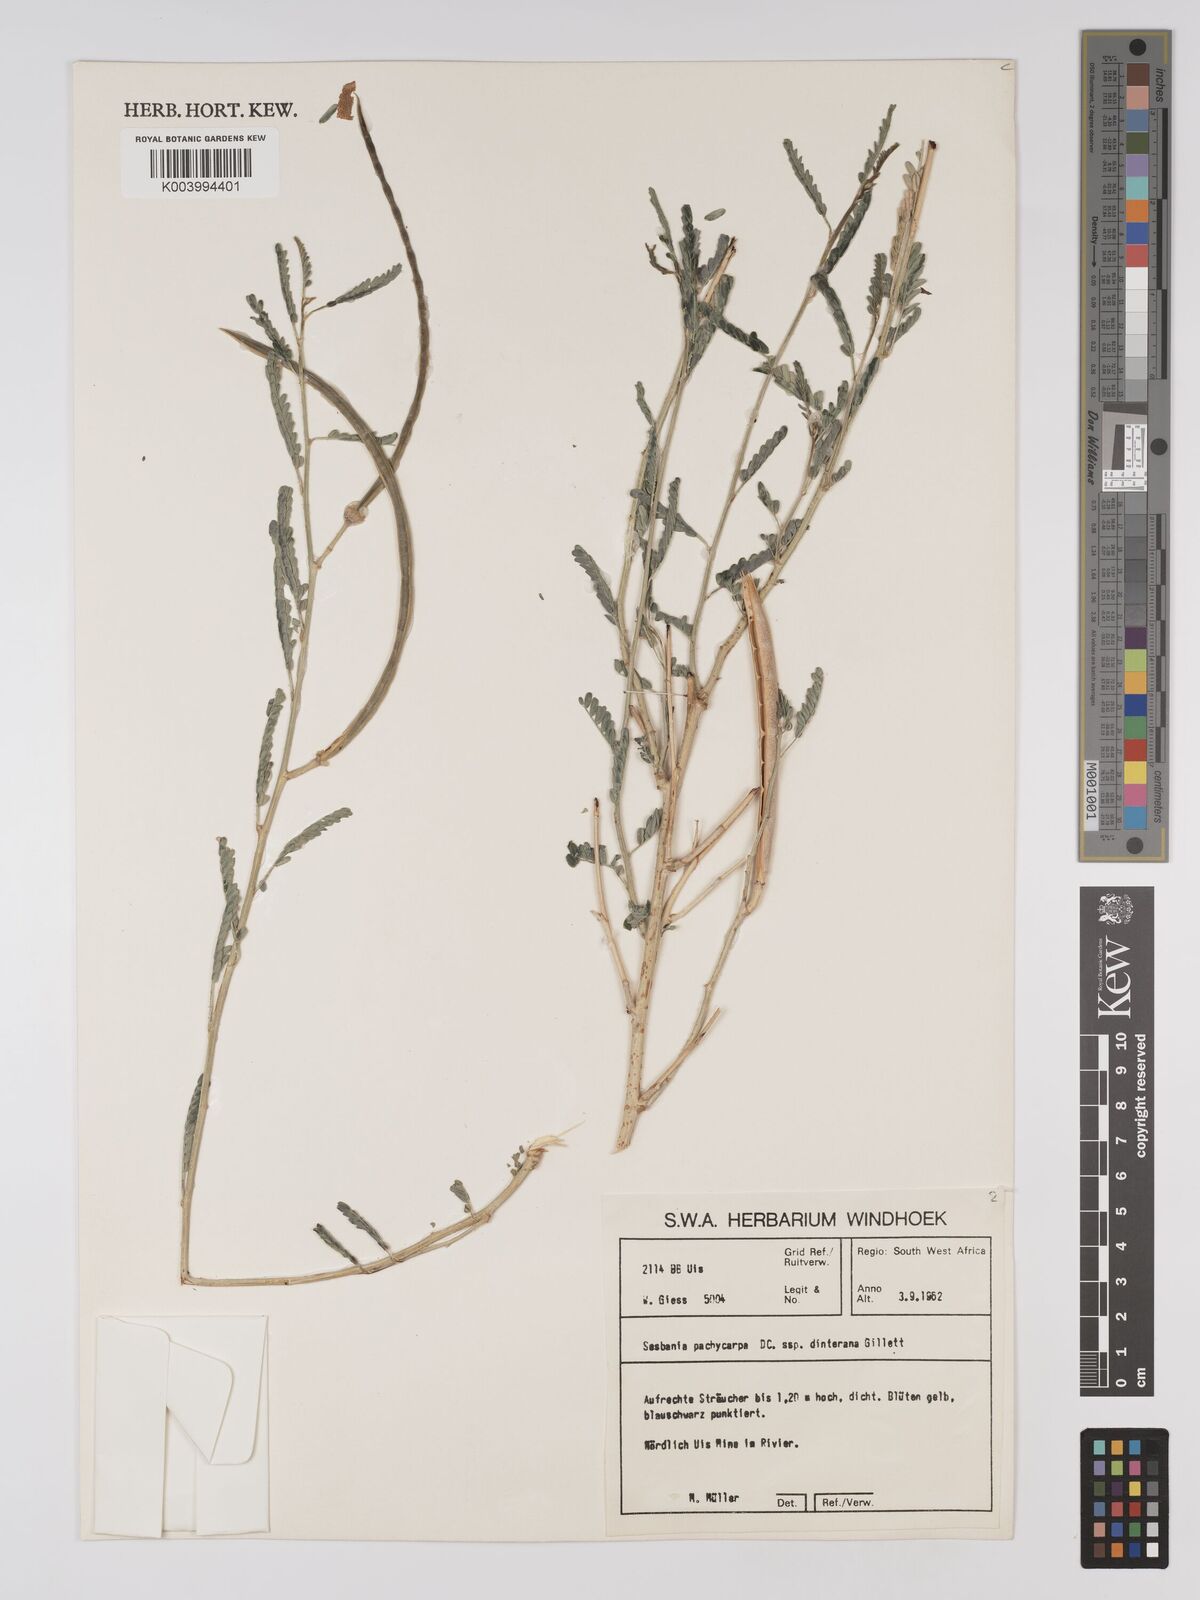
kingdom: Plantae
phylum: Tracheophyta
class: Magnoliopsida
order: Fabales
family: Fabaceae
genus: Sesbania
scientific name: Sesbania pachycarpa
